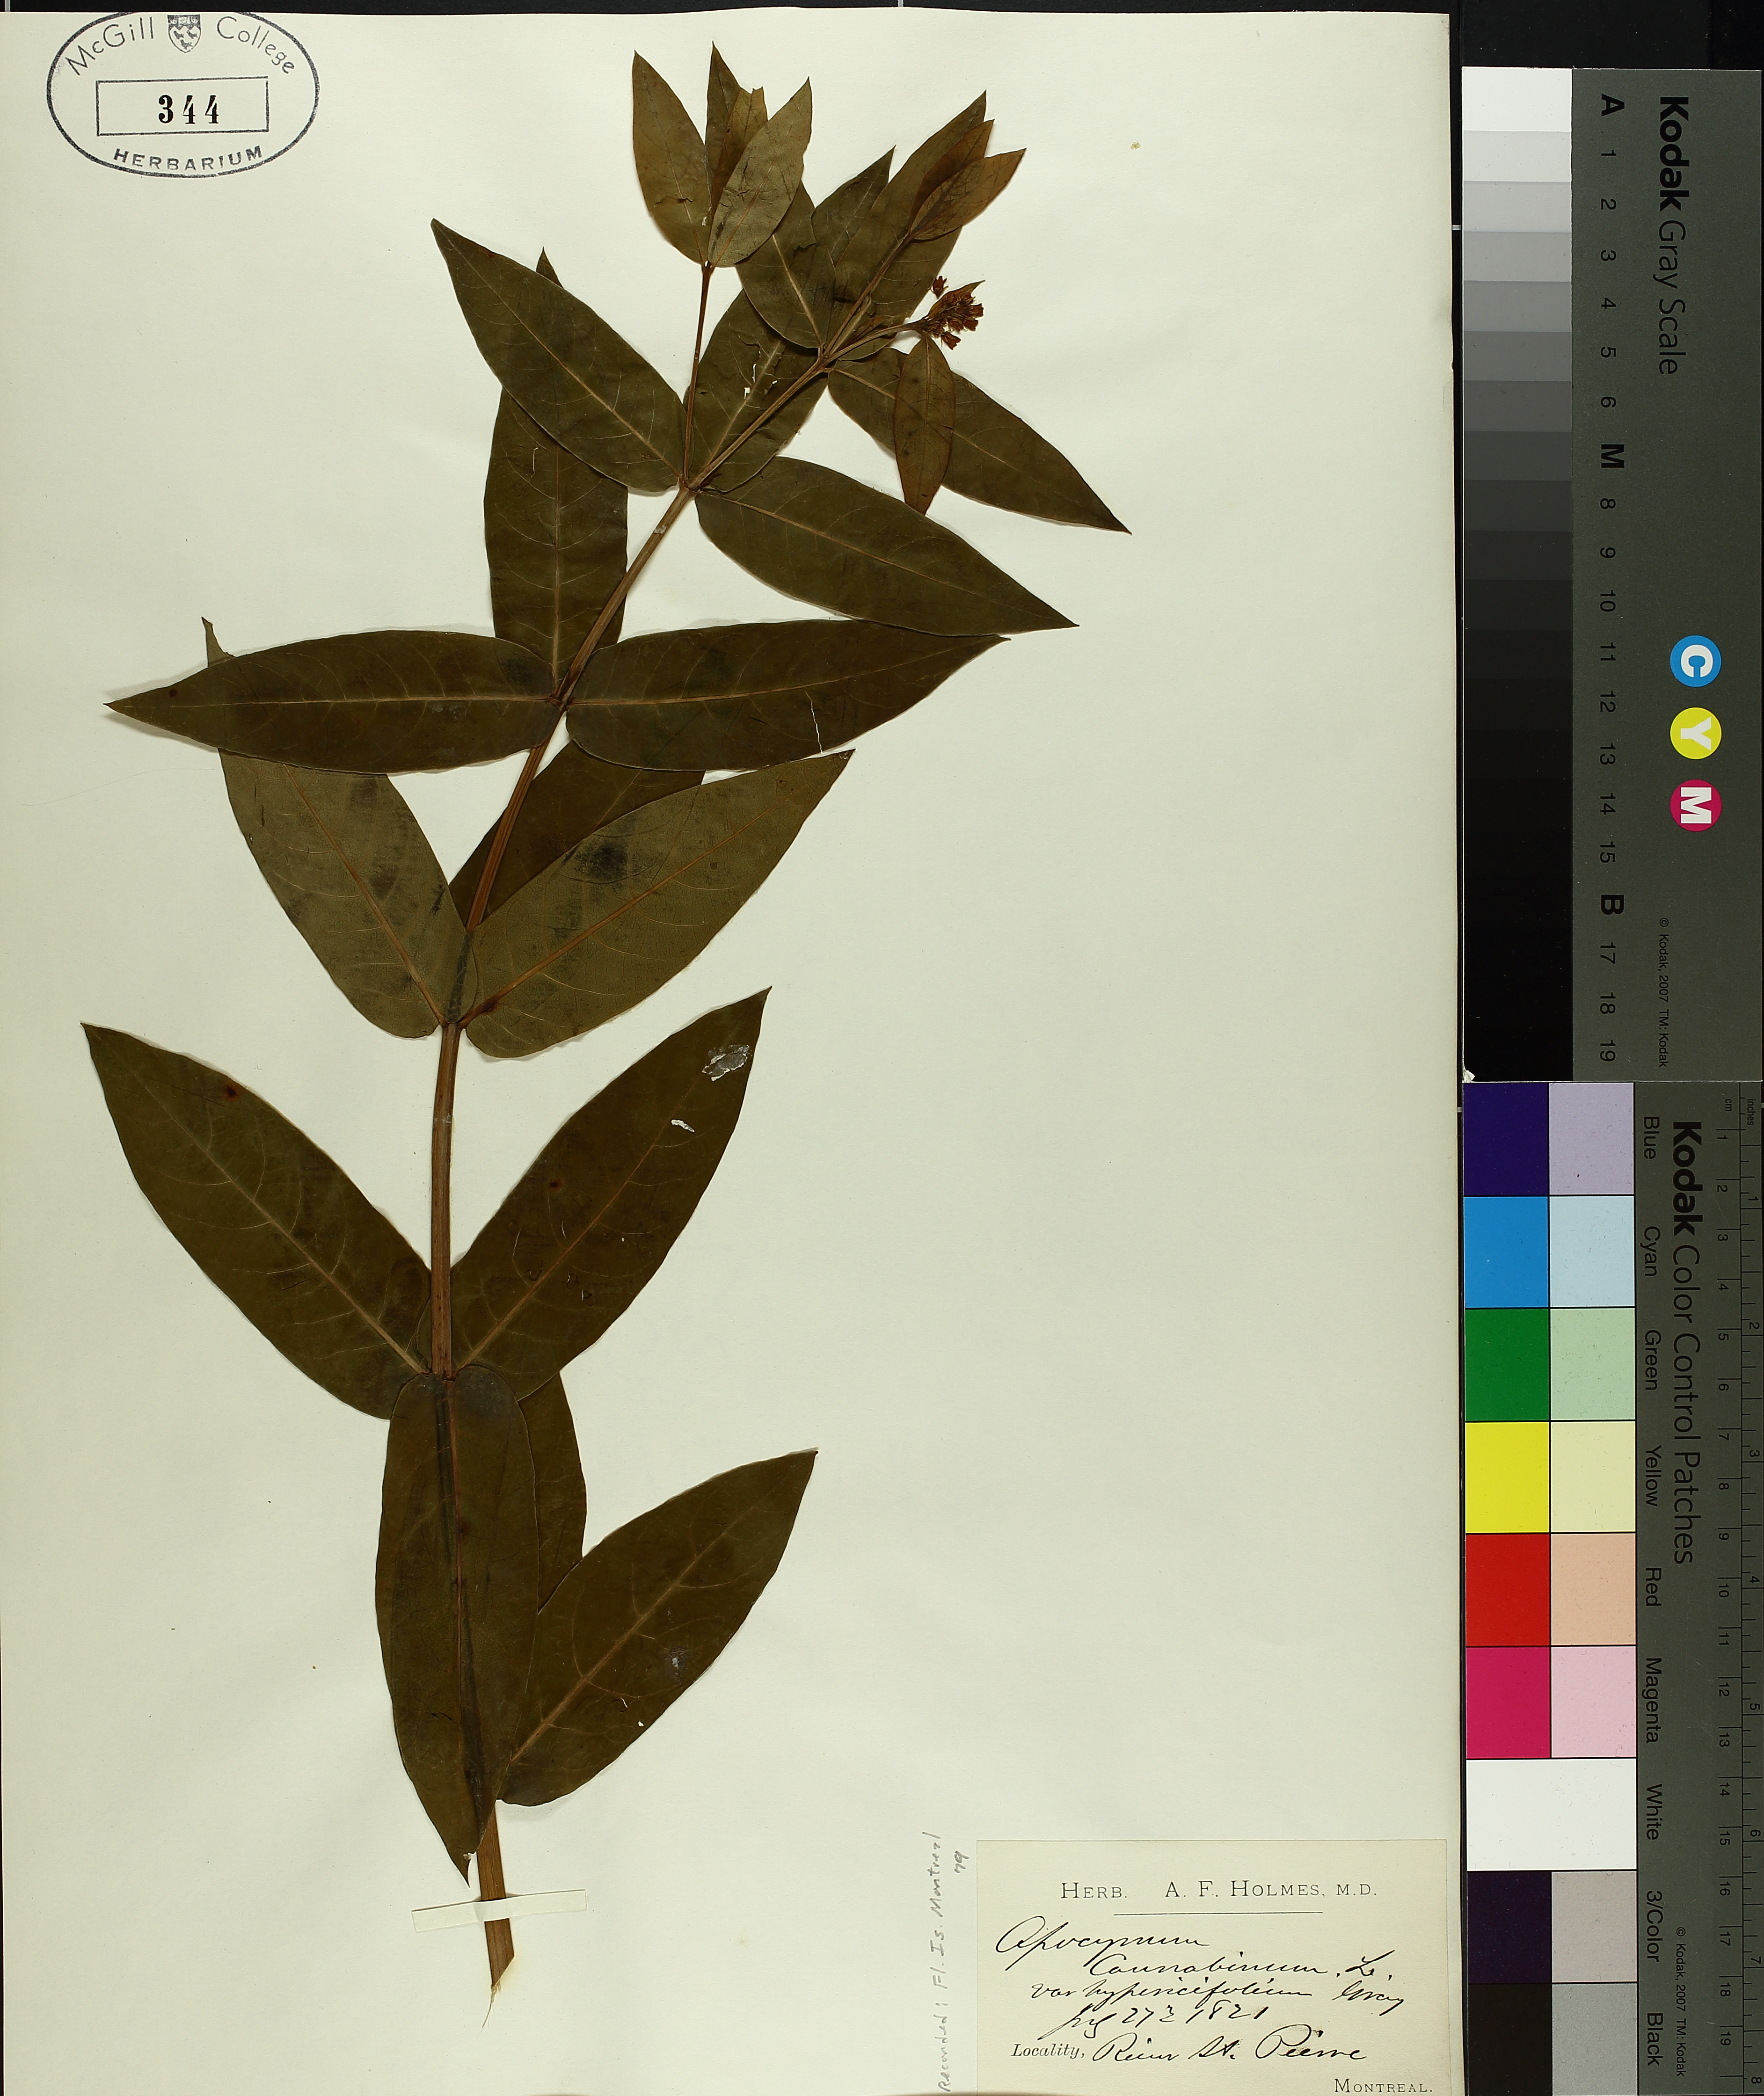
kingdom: Plantae
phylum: Tracheophyta
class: Magnoliopsida
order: Gentianales
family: Apocynaceae
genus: Apocynum
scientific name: Apocynum cannabinum
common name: Hemp dogbane
